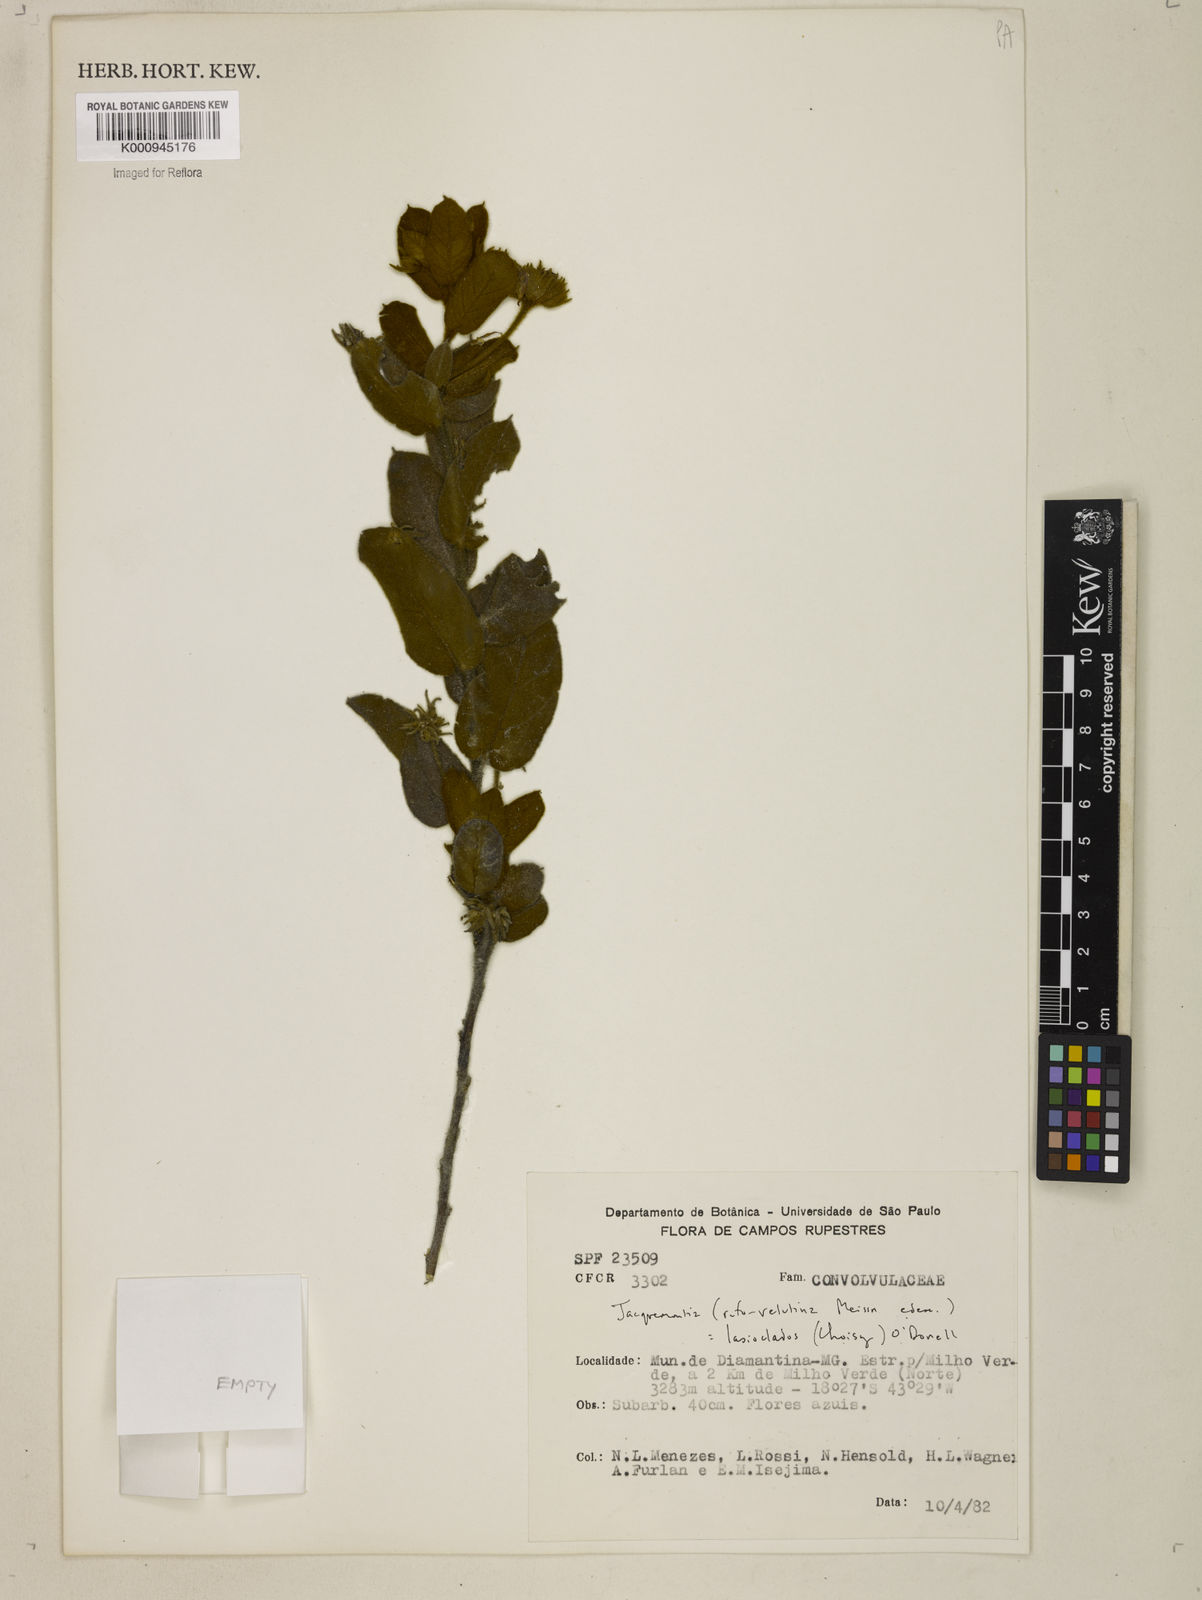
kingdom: Plantae
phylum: Tracheophyta
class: Magnoliopsida
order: Solanales
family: Convolvulaceae
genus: Jacquemontia
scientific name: Jacquemontia lasioclados
